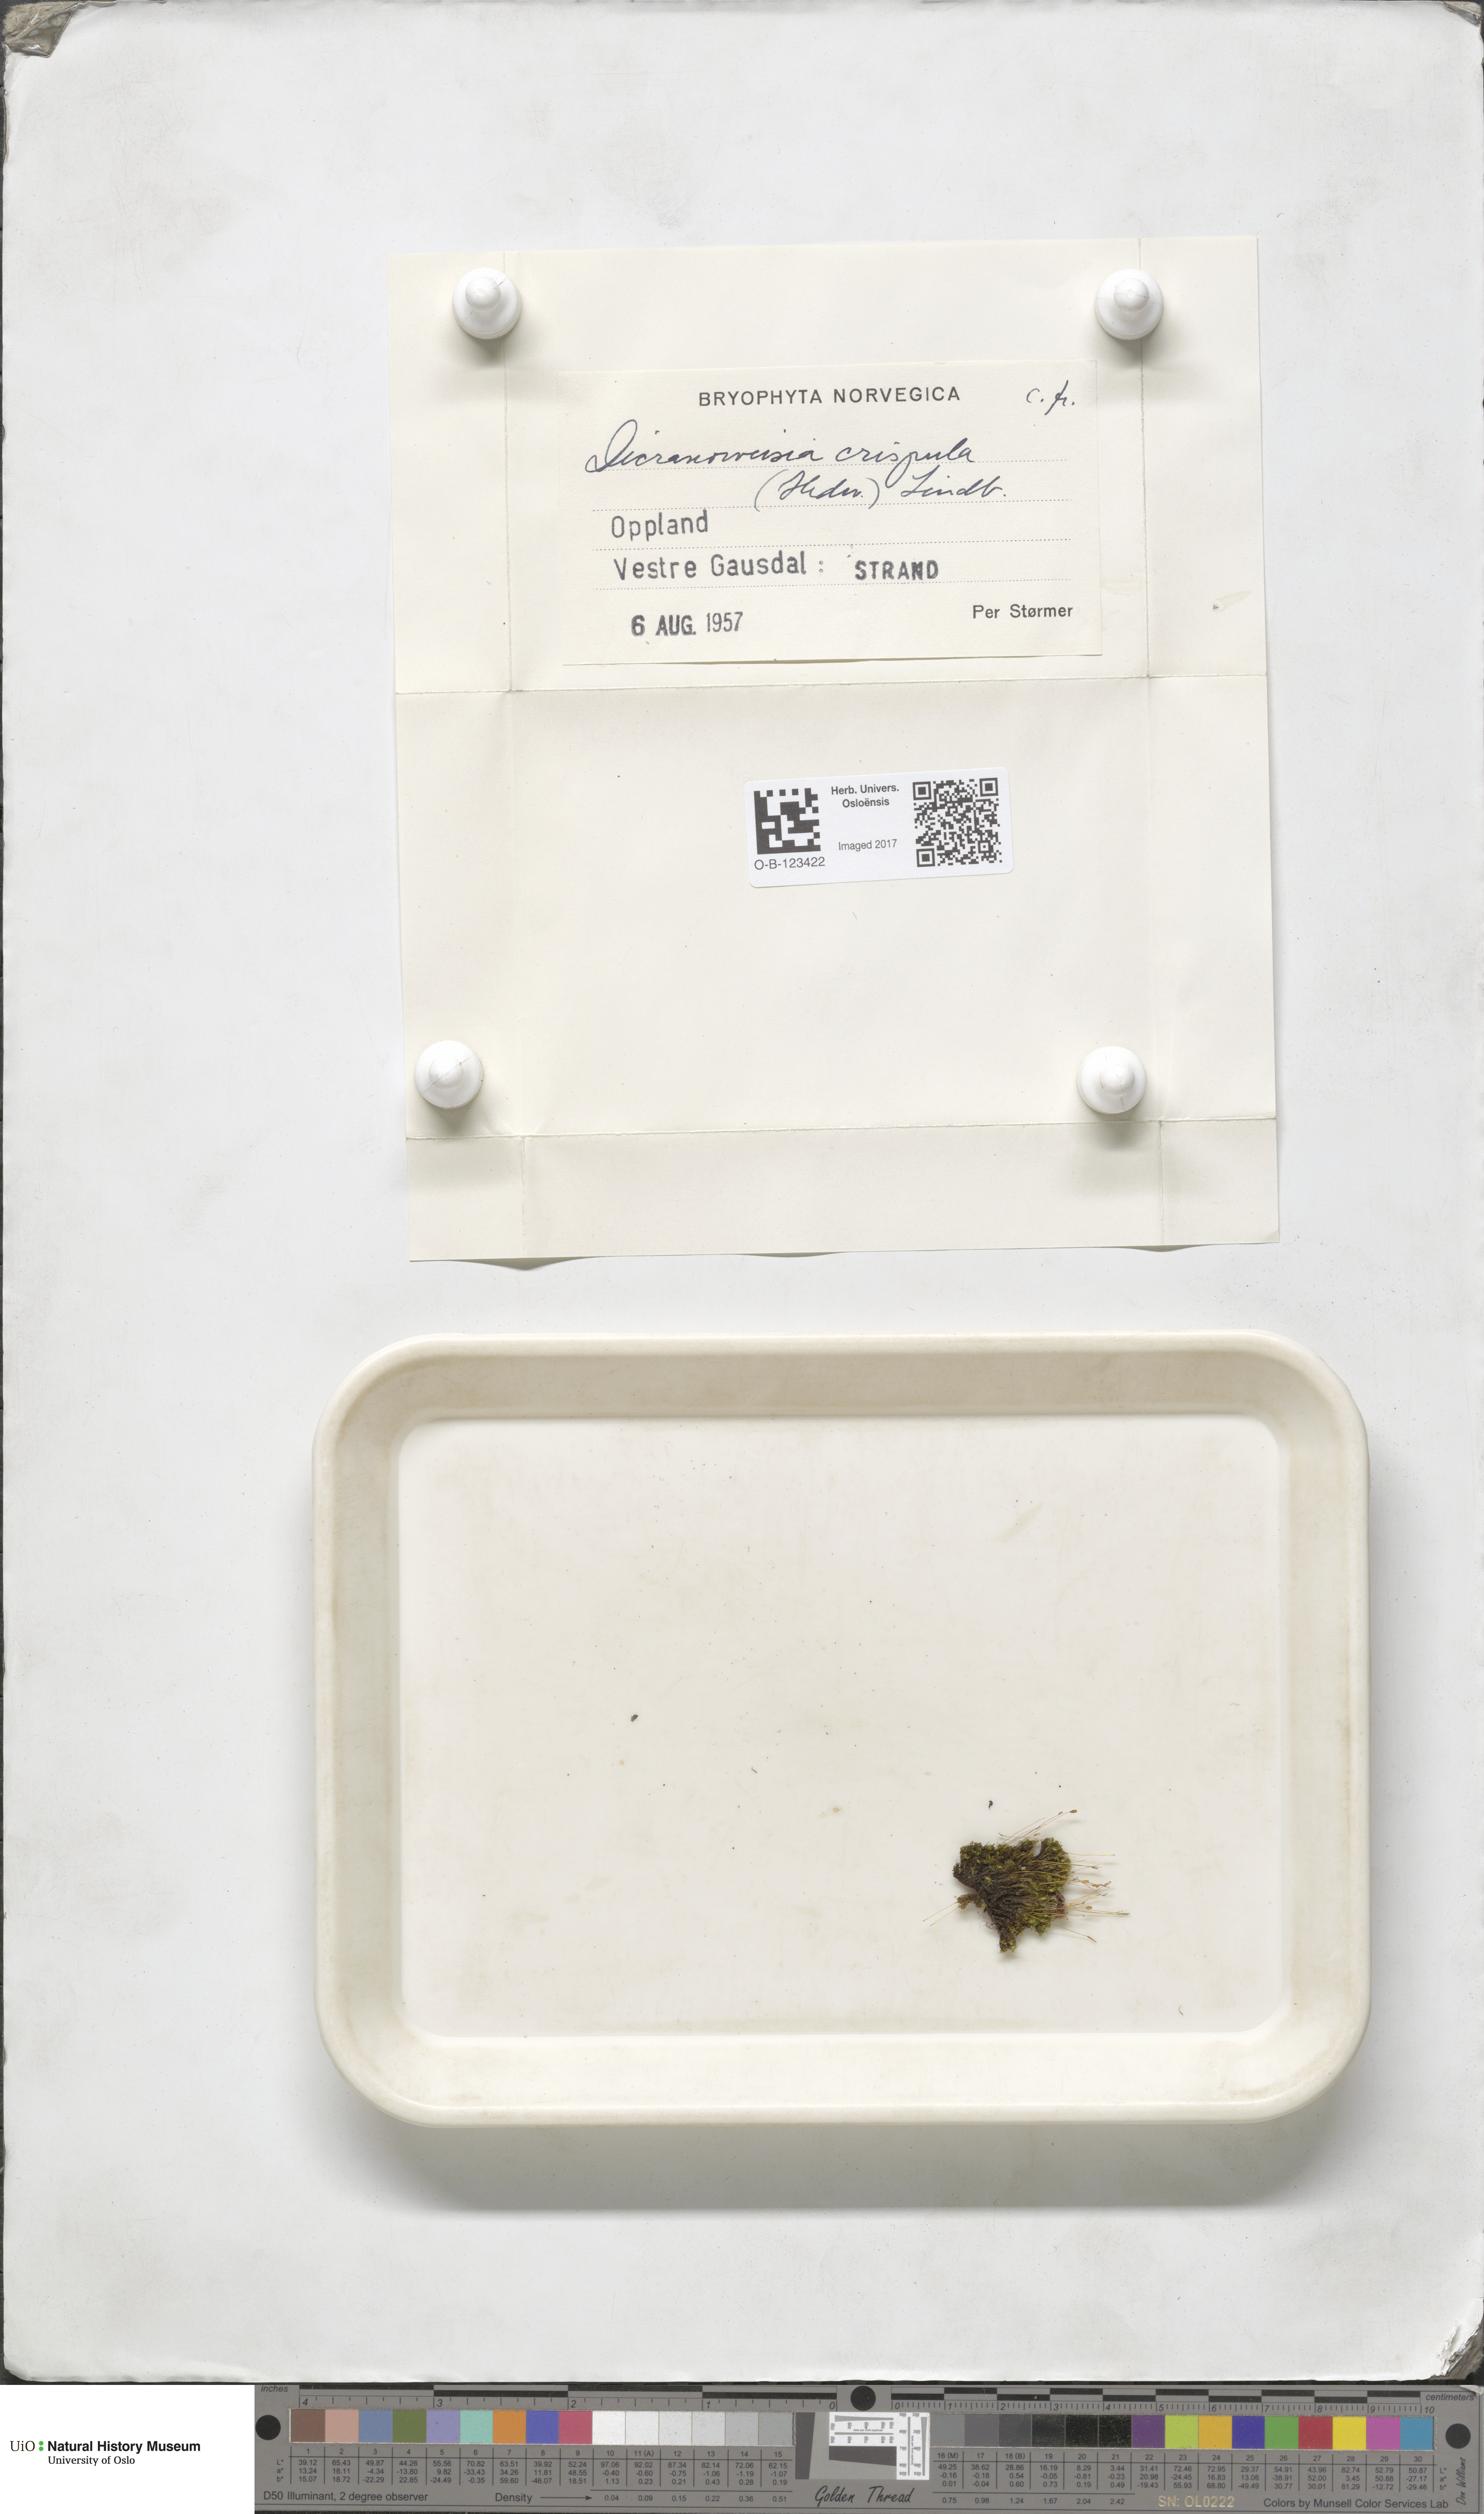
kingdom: Plantae
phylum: Bryophyta
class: Bryopsida
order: Scouleriales
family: Hymenolomataceae
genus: Hymenoloma
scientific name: Hymenoloma crispulum
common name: Mountain pincushion
